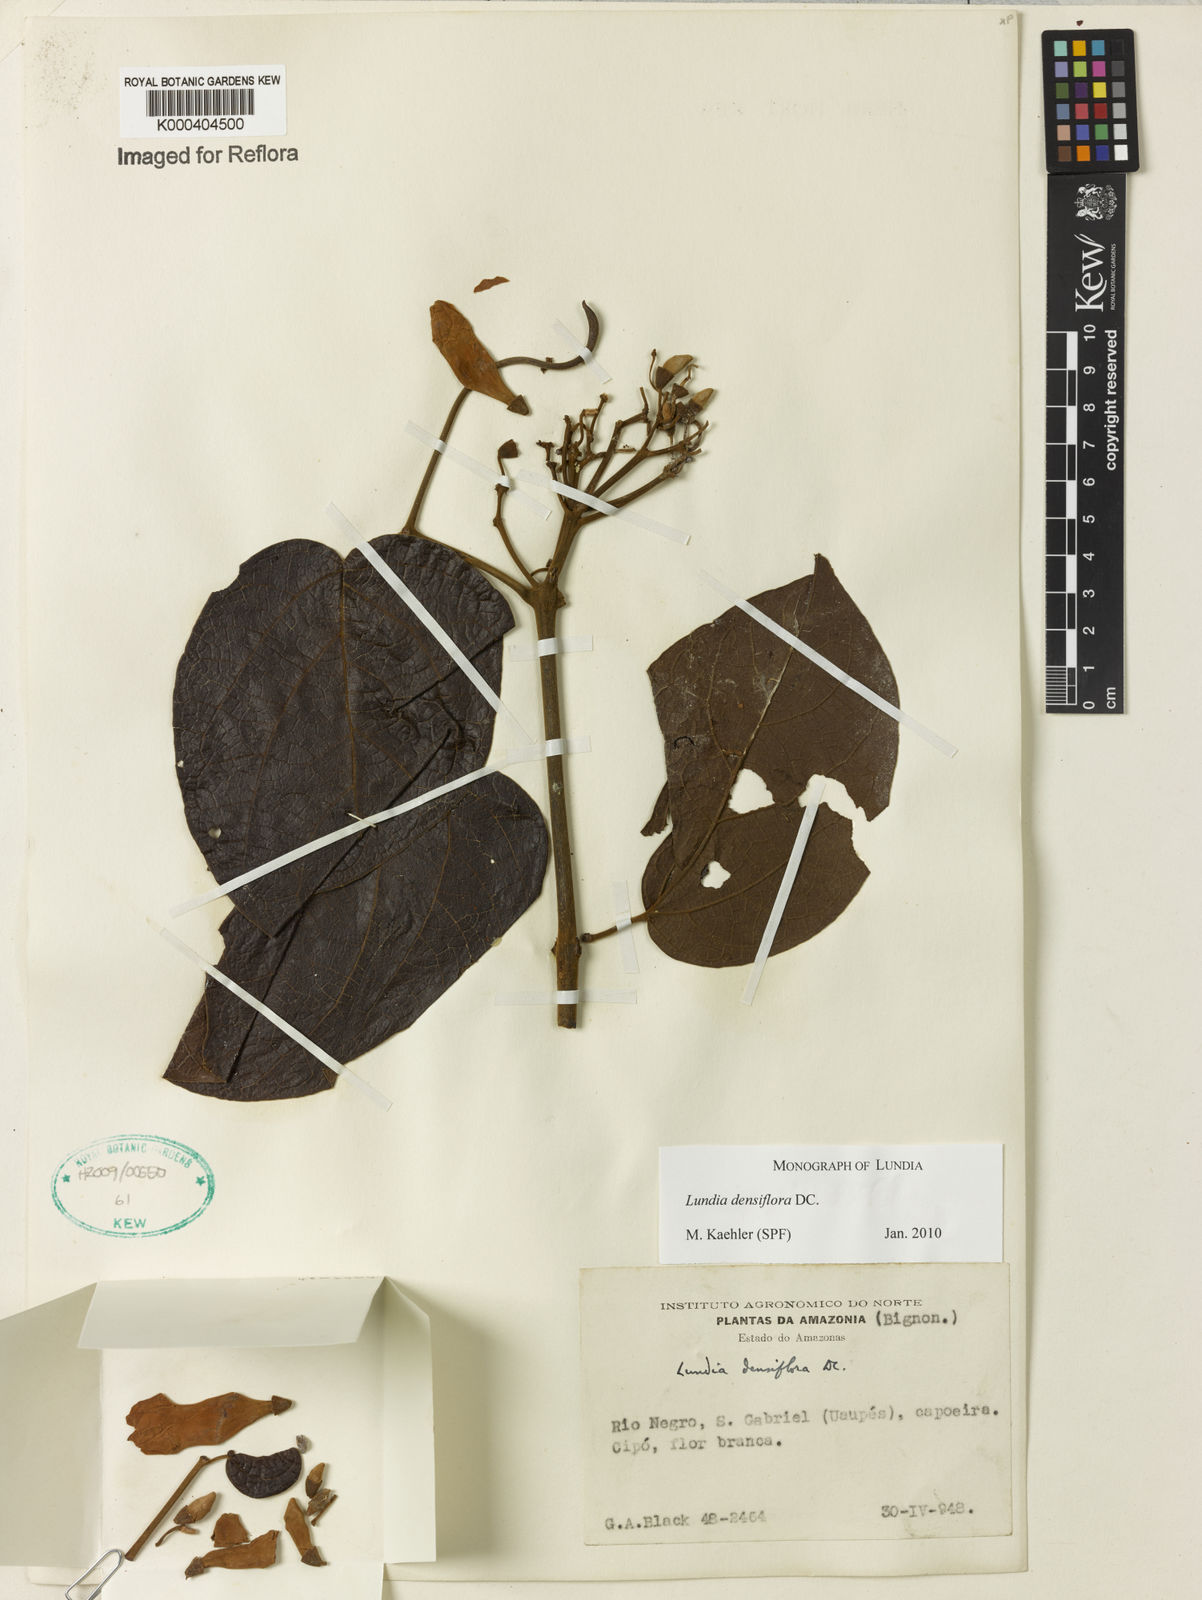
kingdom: Plantae
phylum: Tracheophyta
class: Magnoliopsida
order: Lamiales
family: Bignoniaceae
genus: Lundia
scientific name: Lundia densiflora
